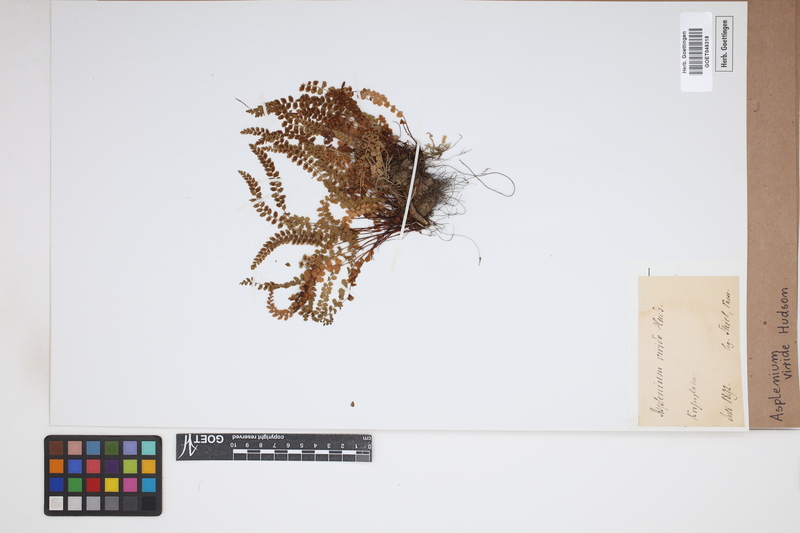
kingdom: Plantae
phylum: Tracheophyta
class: Polypodiopsida
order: Polypodiales
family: Aspleniaceae
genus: Asplenium
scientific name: Asplenium viride
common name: Green spleenwort
